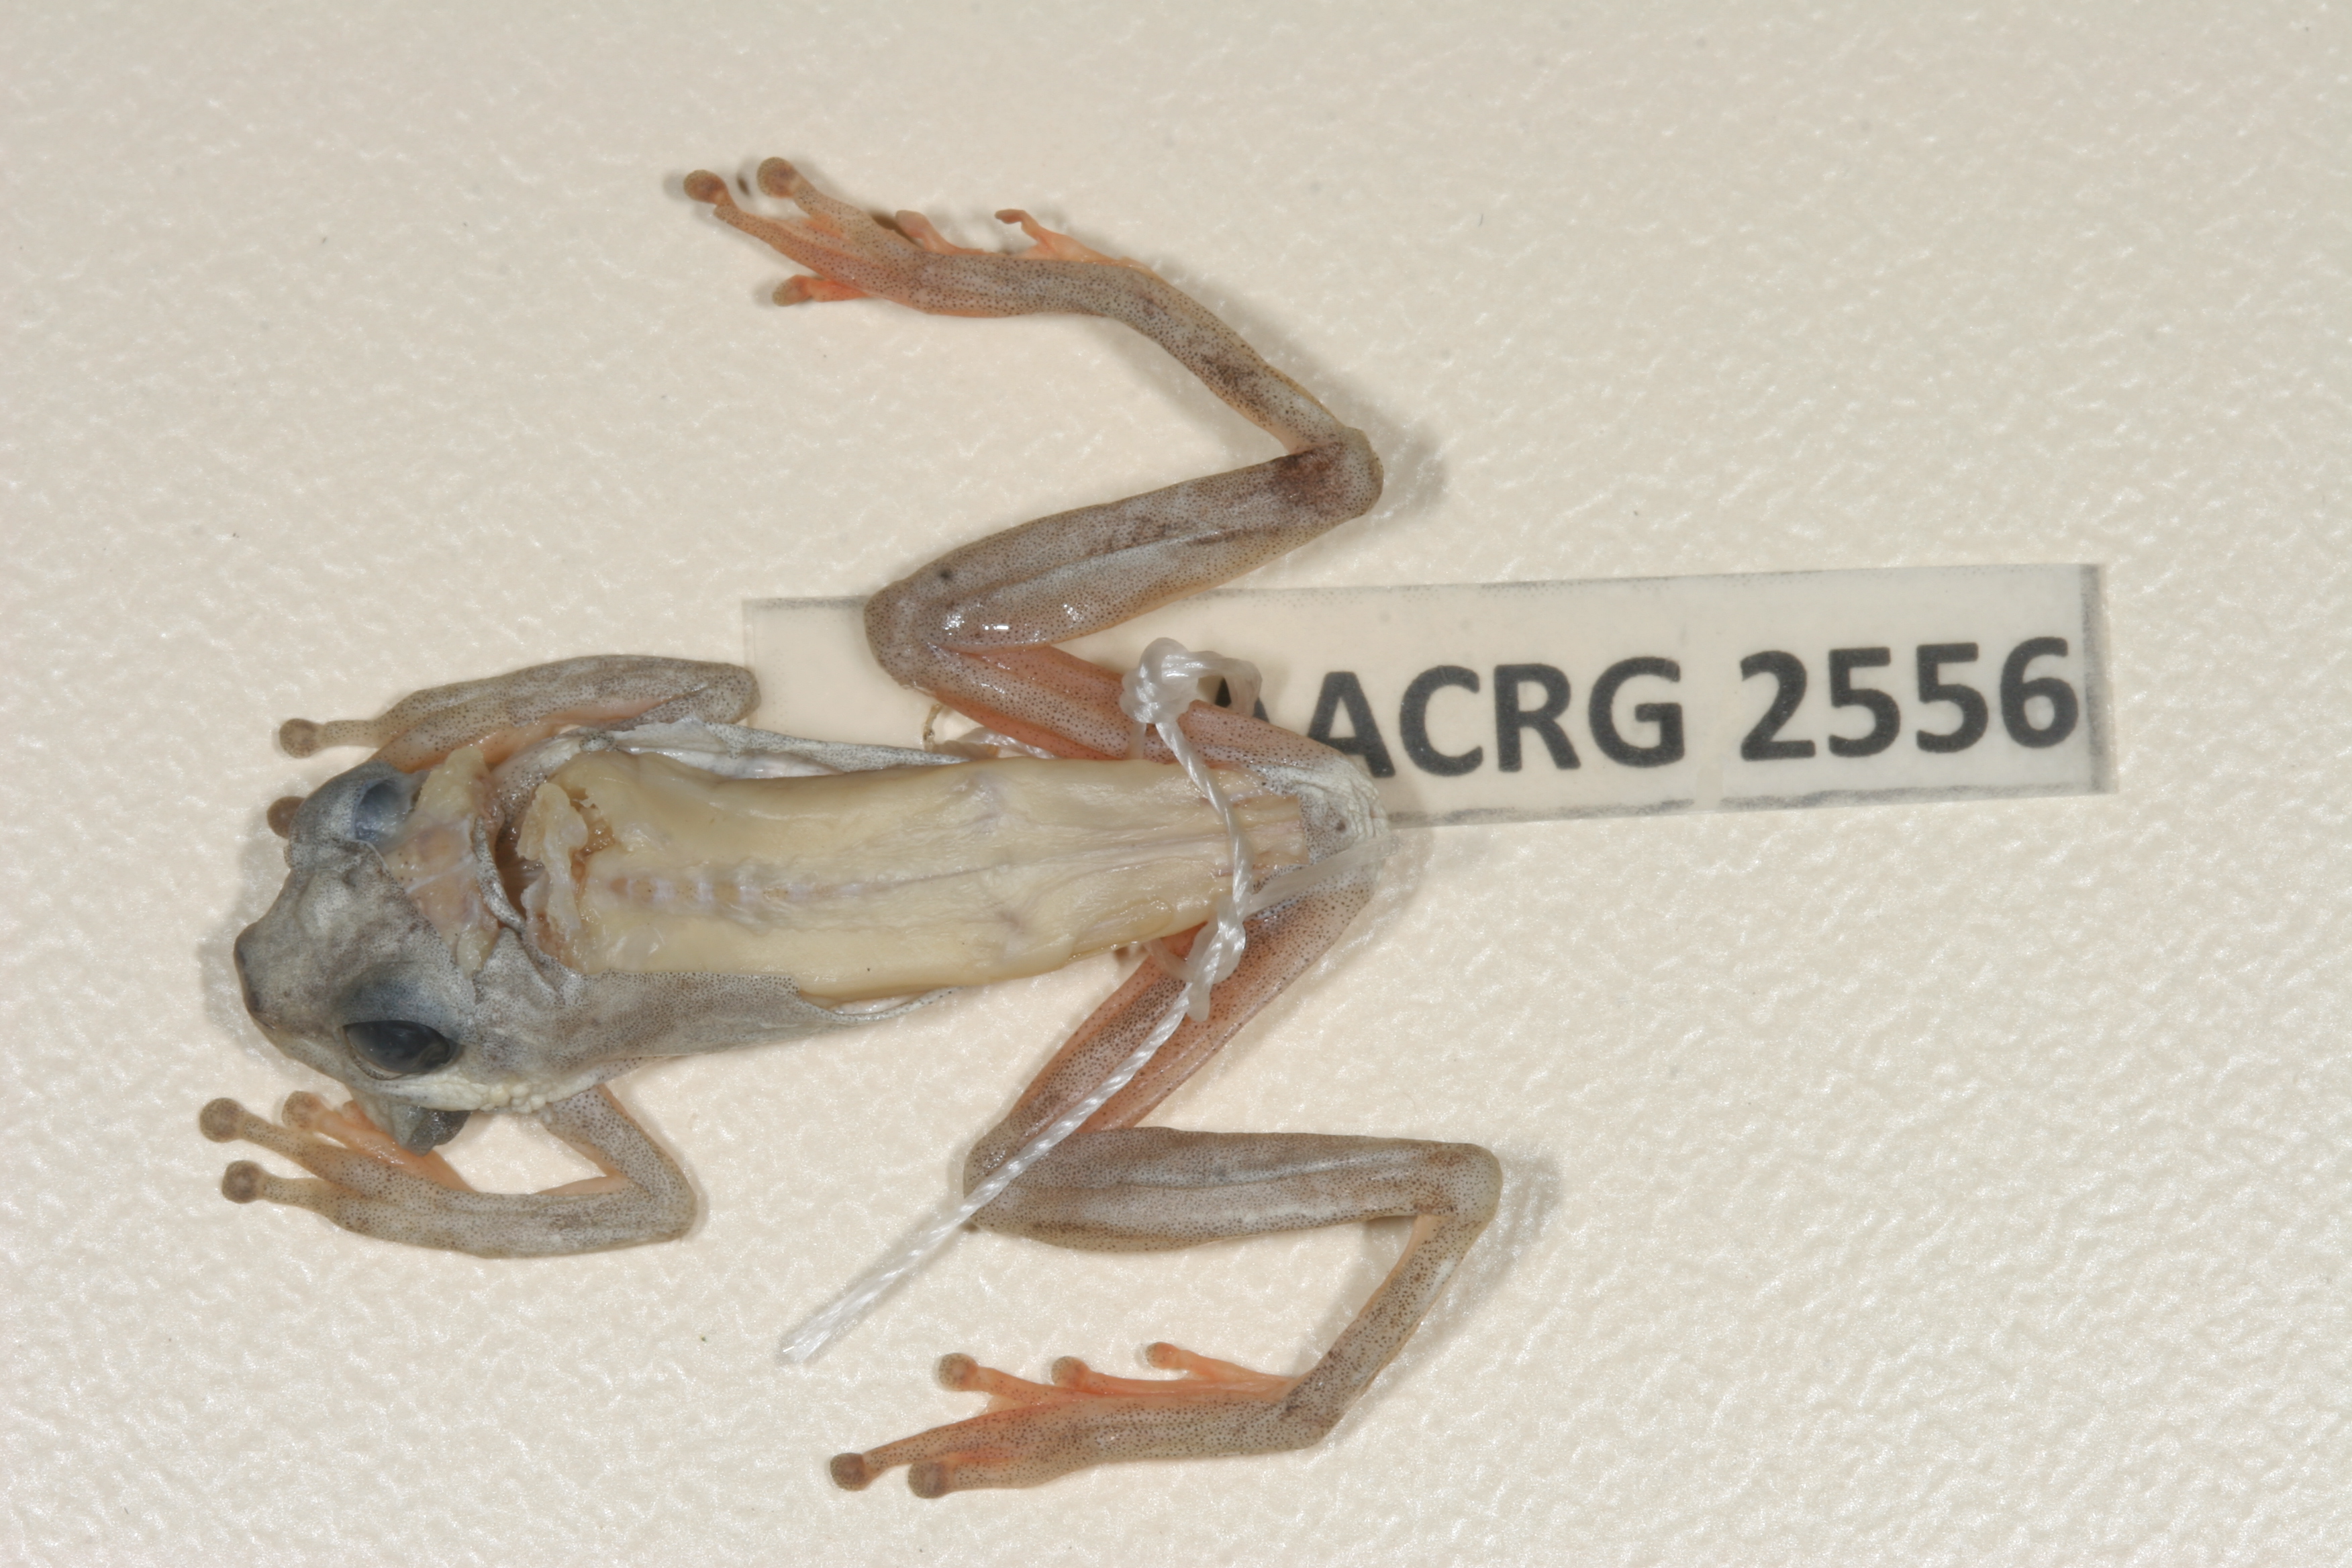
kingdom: Animalia
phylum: Chordata
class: Amphibia
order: Anura
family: Hyperoliidae
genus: Hyperolius
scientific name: Hyperolius marmoratus
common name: Painted reed frog
